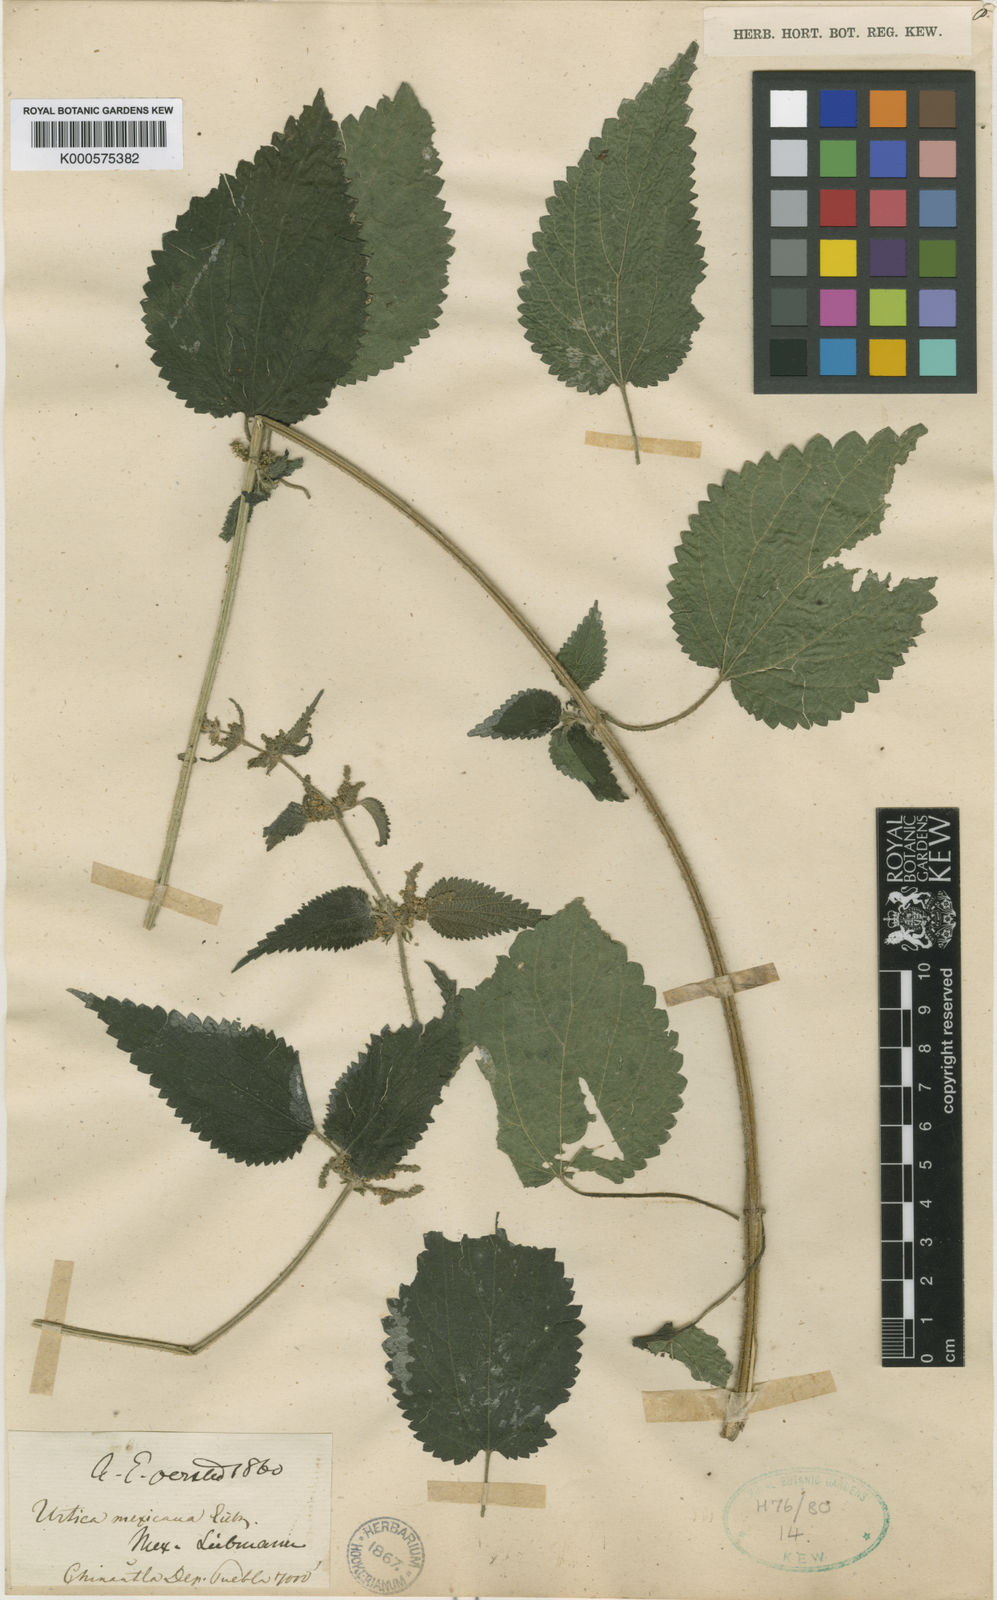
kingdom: Plantae
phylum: Tracheophyta
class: Magnoliopsida
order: Rosales
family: Urticaceae
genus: Urtica
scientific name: Urtica mexicana
